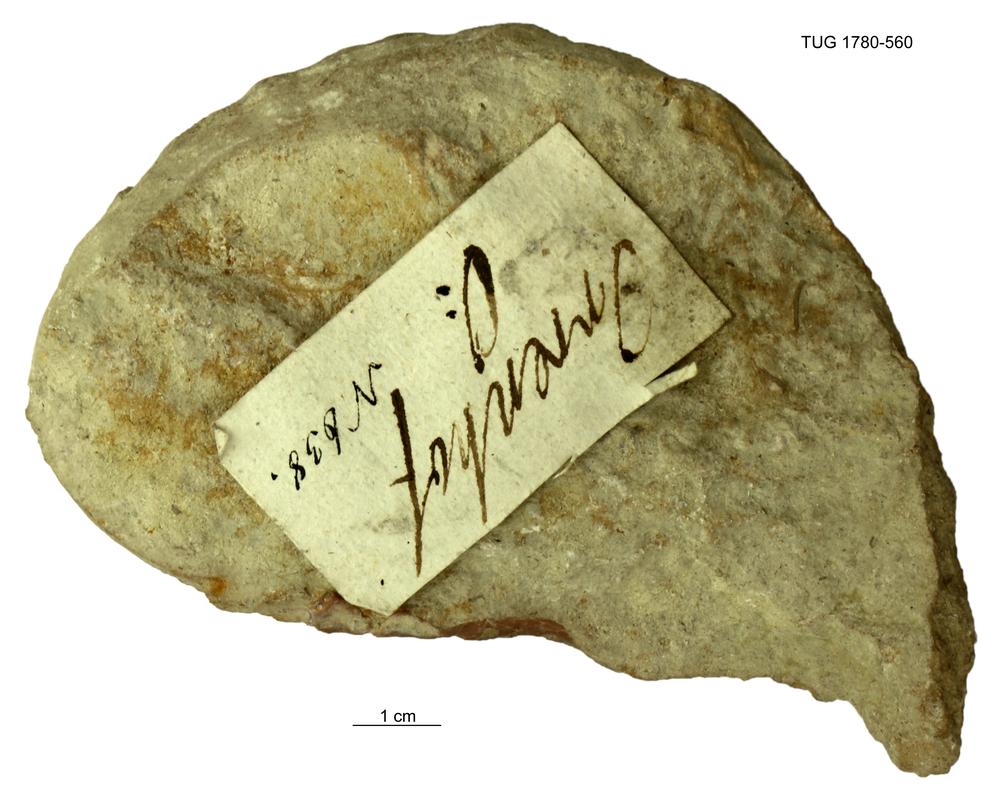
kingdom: Animalia
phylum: Mollusca
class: Gastropoda
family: Holopeidae
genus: Holopea
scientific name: Holopea ampullacea
